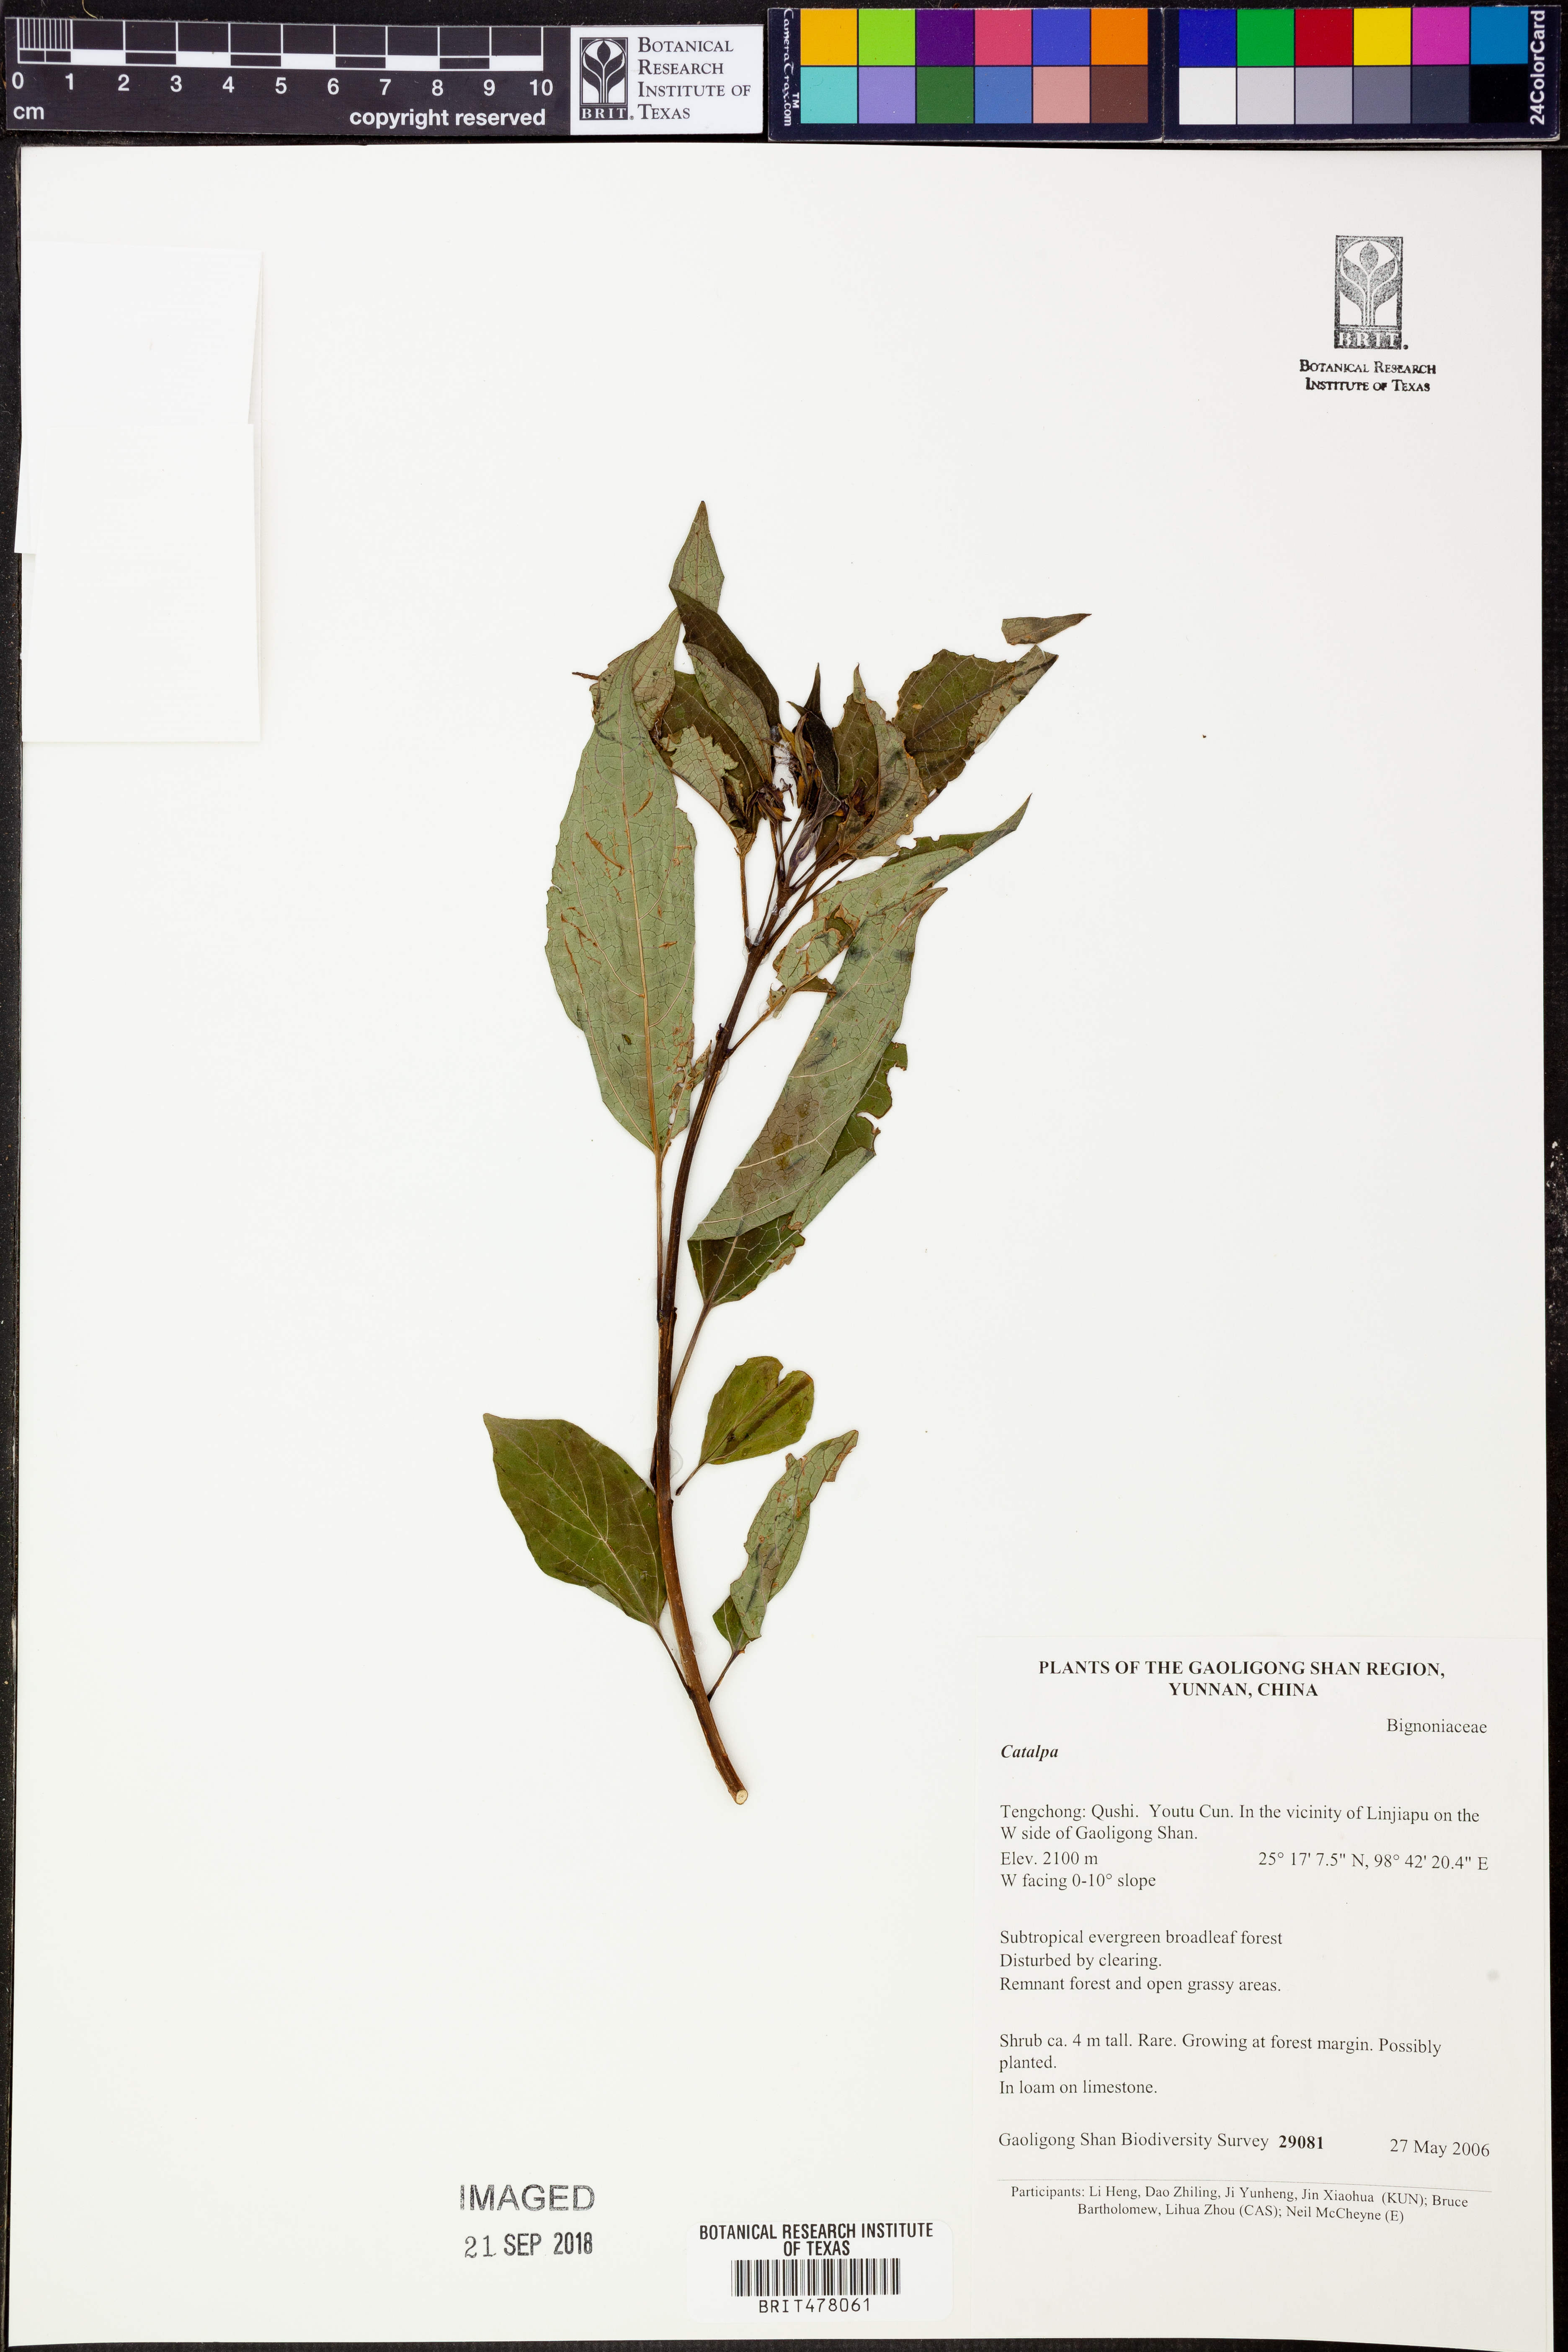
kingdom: Plantae
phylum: Tracheophyta
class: Magnoliopsida
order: Lamiales
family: Bignoniaceae
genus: Catalpa
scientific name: Catalpa
